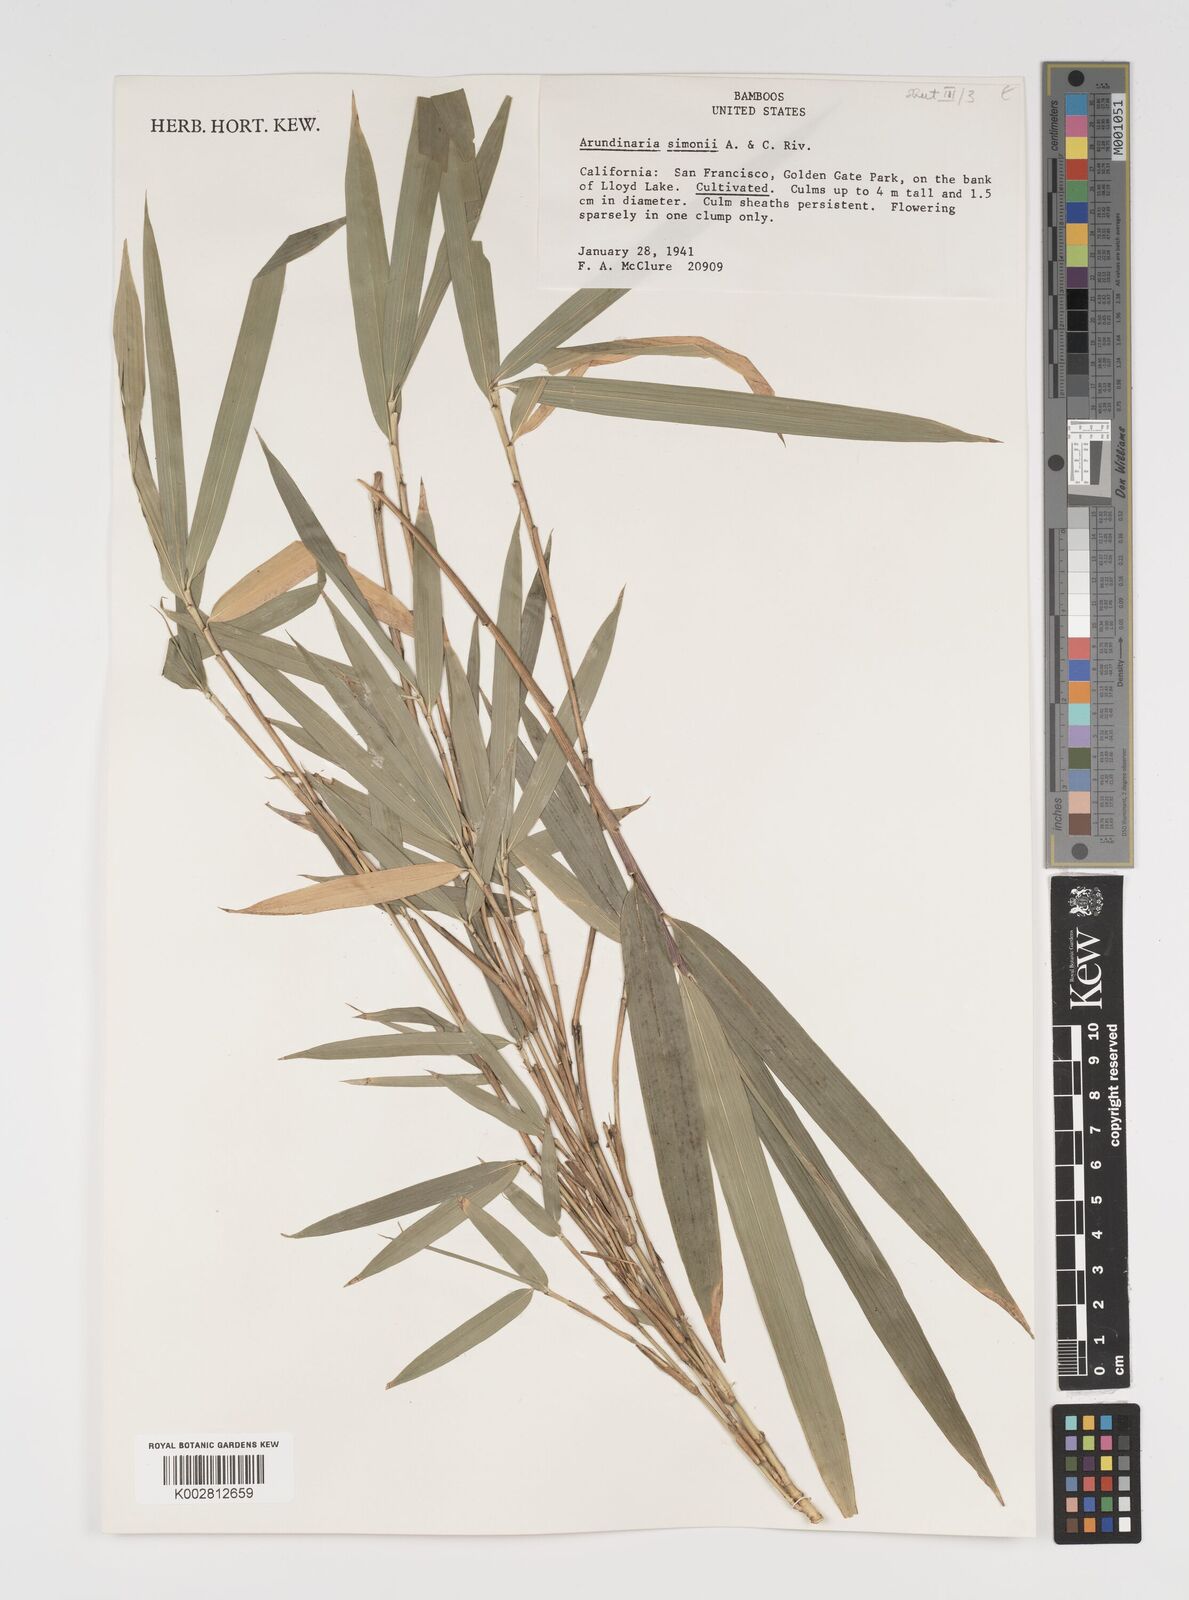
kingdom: Plantae
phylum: Tracheophyta
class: Liliopsida
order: Poales
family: Poaceae
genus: Pleioblastus
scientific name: Pleioblastus simonii
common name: Simon bamboo
